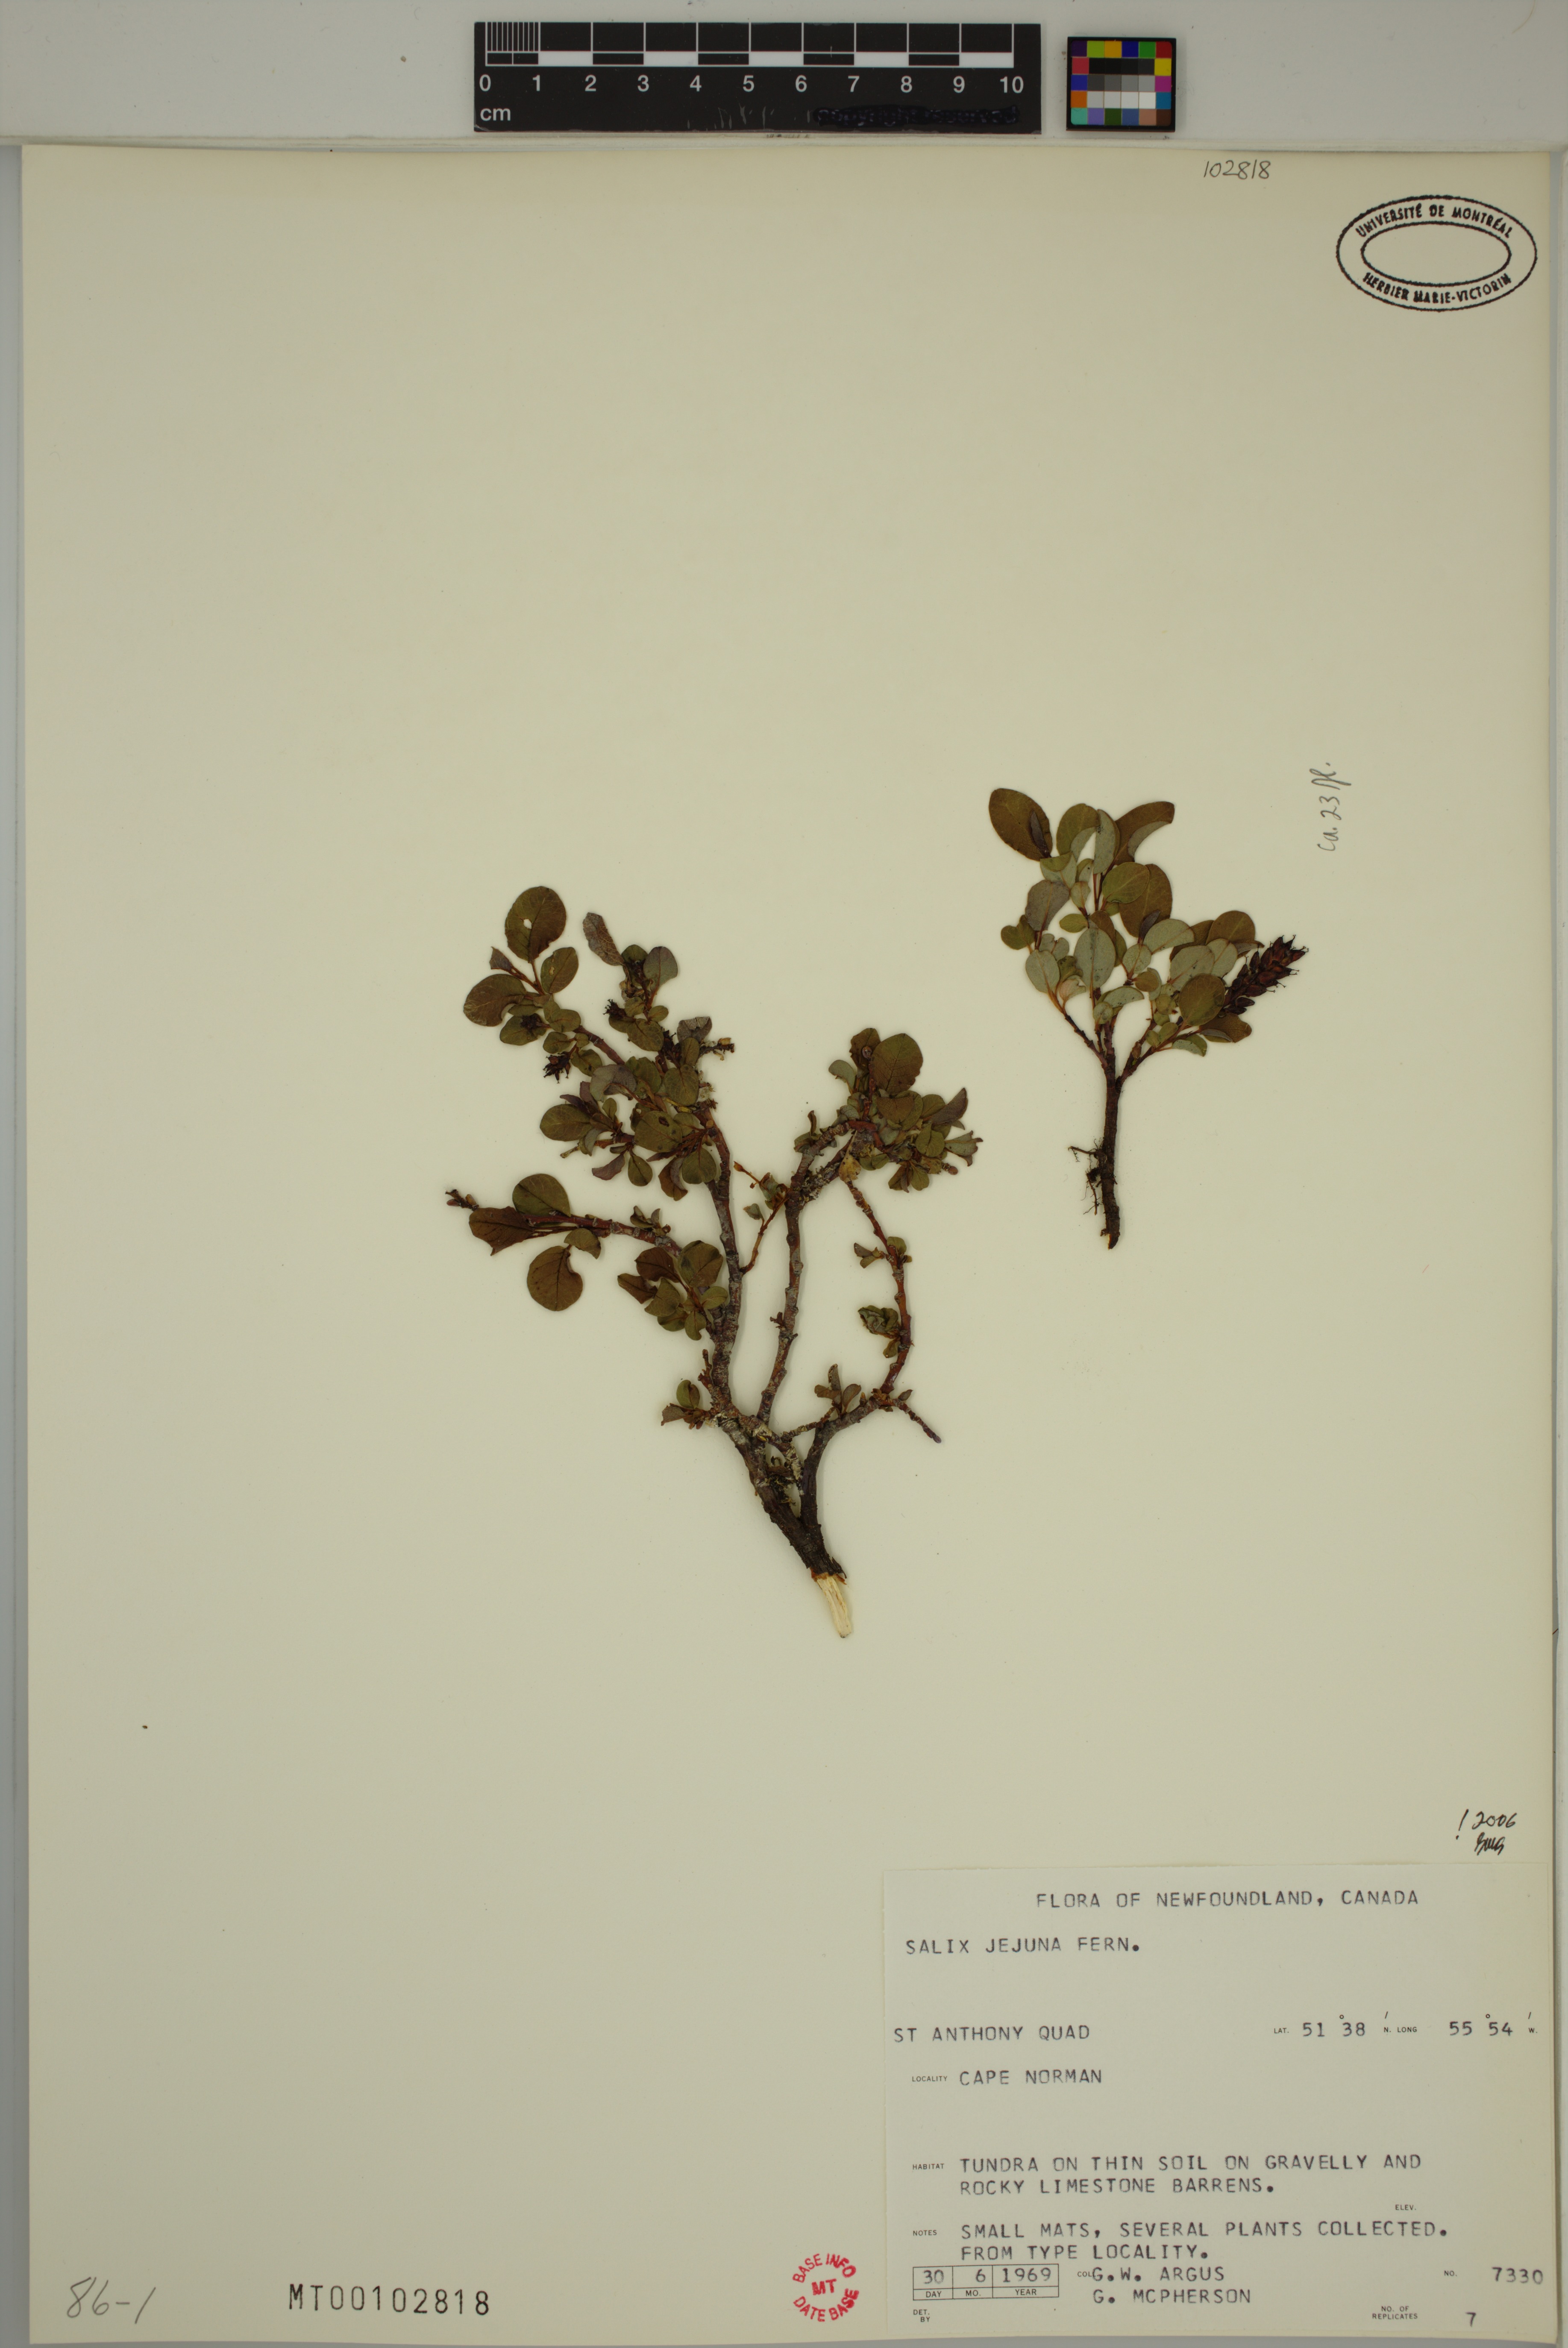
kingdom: Plantae
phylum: Tracheophyta
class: Magnoliopsida
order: Malpighiales
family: Salicaceae
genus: Salix
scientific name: Salix jejuna
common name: Belle isle dwarf willow
